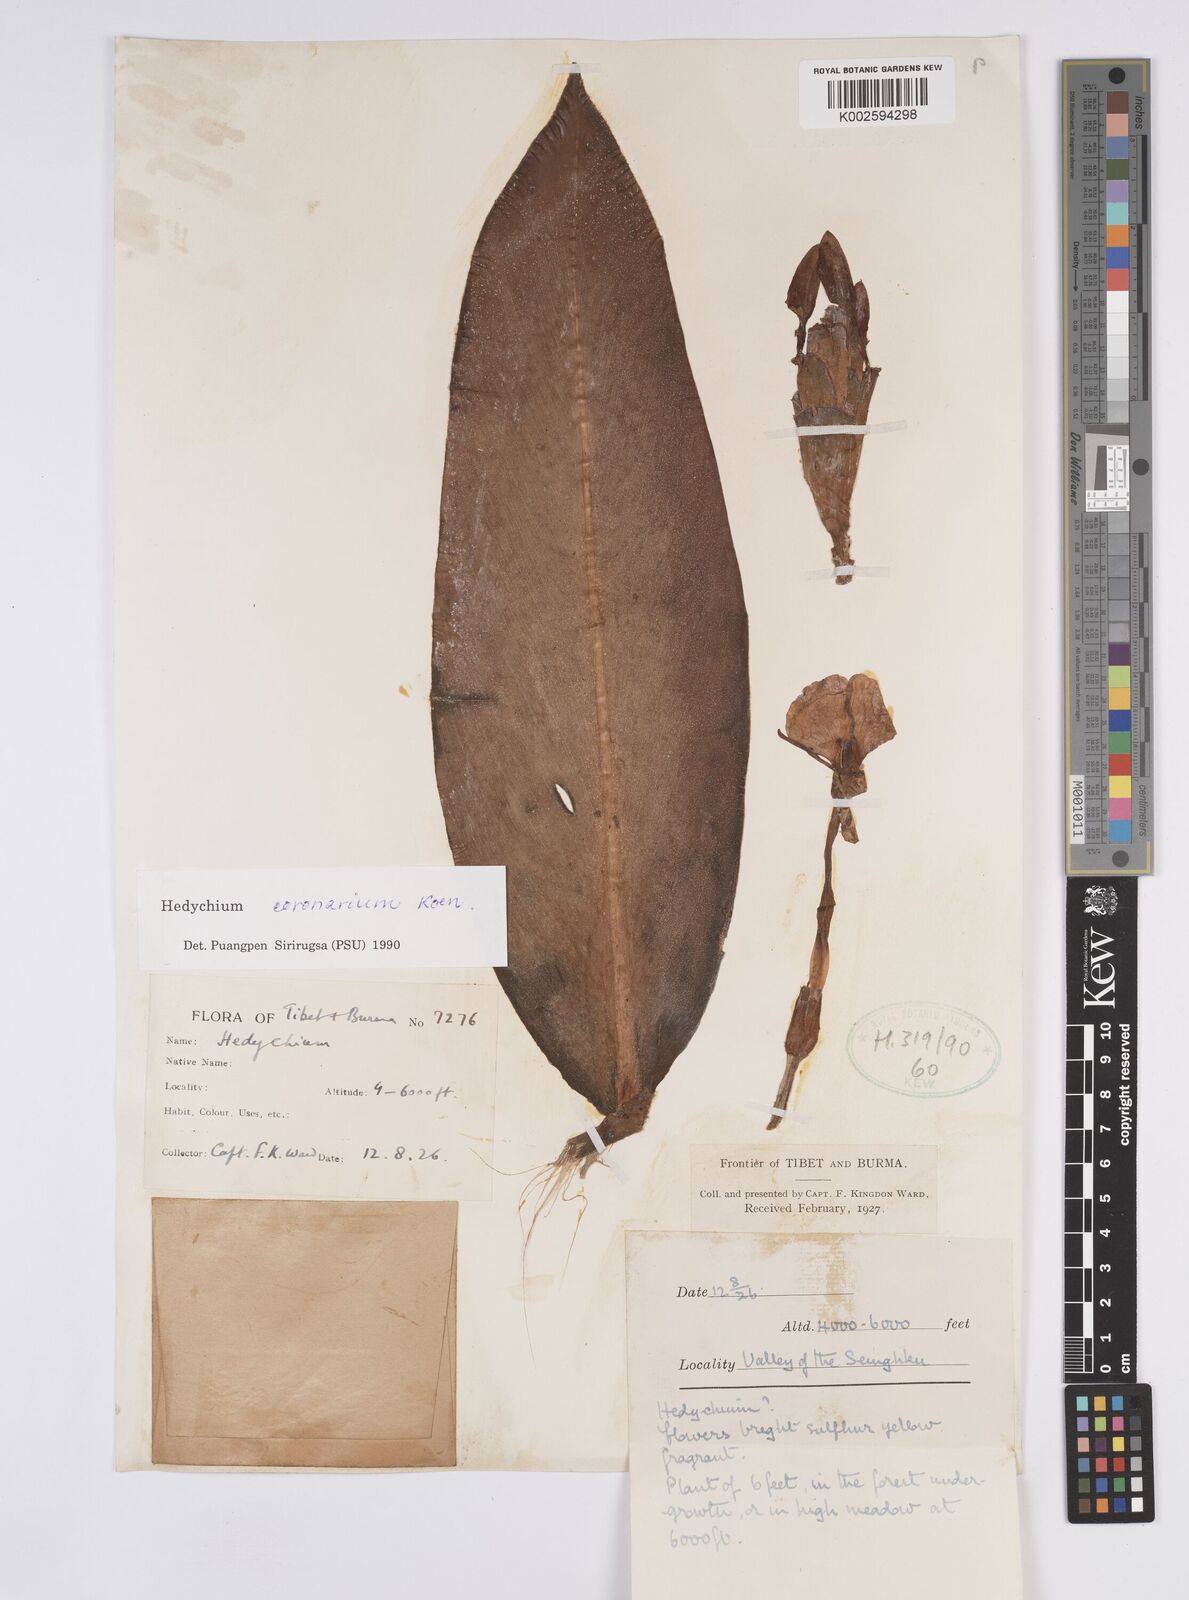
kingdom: Plantae
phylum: Tracheophyta
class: Liliopsida
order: Zingiberales
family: Zingiberaceae
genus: Hedychium
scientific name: Hedychium coronarium
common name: White garland-lily
